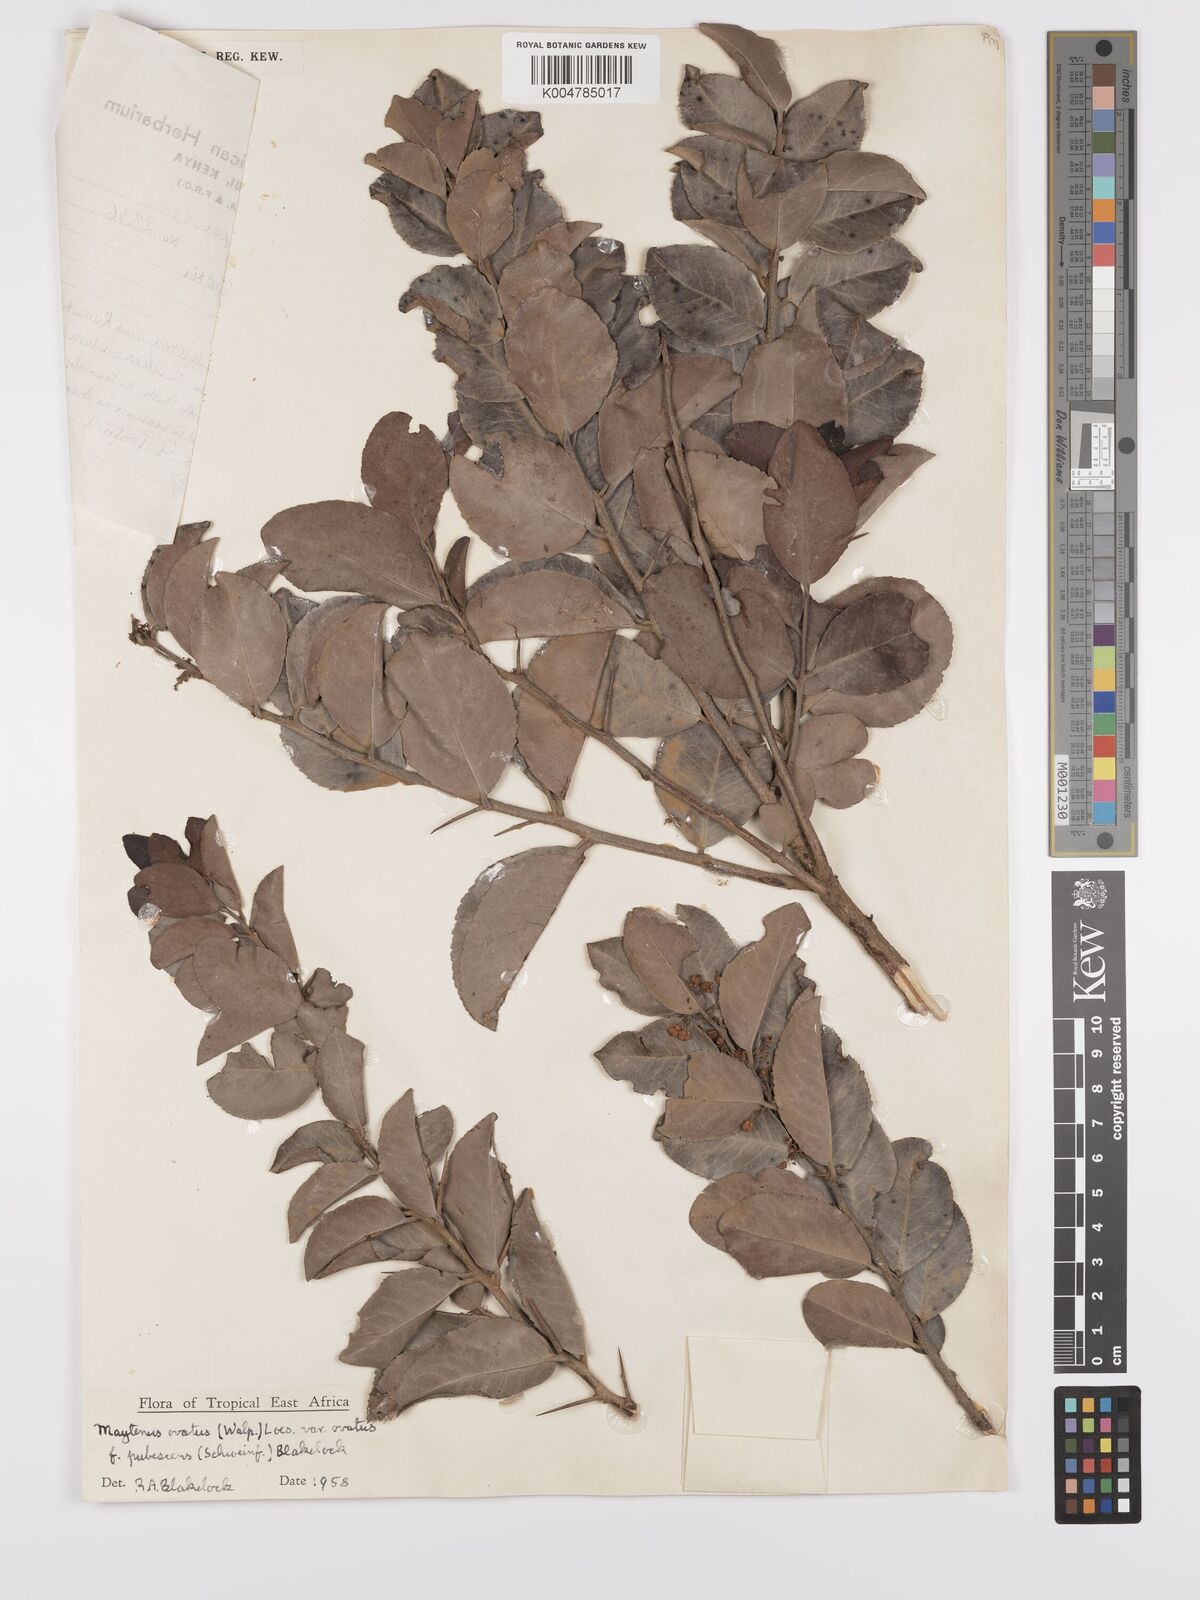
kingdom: Plantae
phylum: Tracheophyta
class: Magnoliopsida
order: Celastrales
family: Celastraceae
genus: Gymnosporia
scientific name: Gymnosporia buchananii
